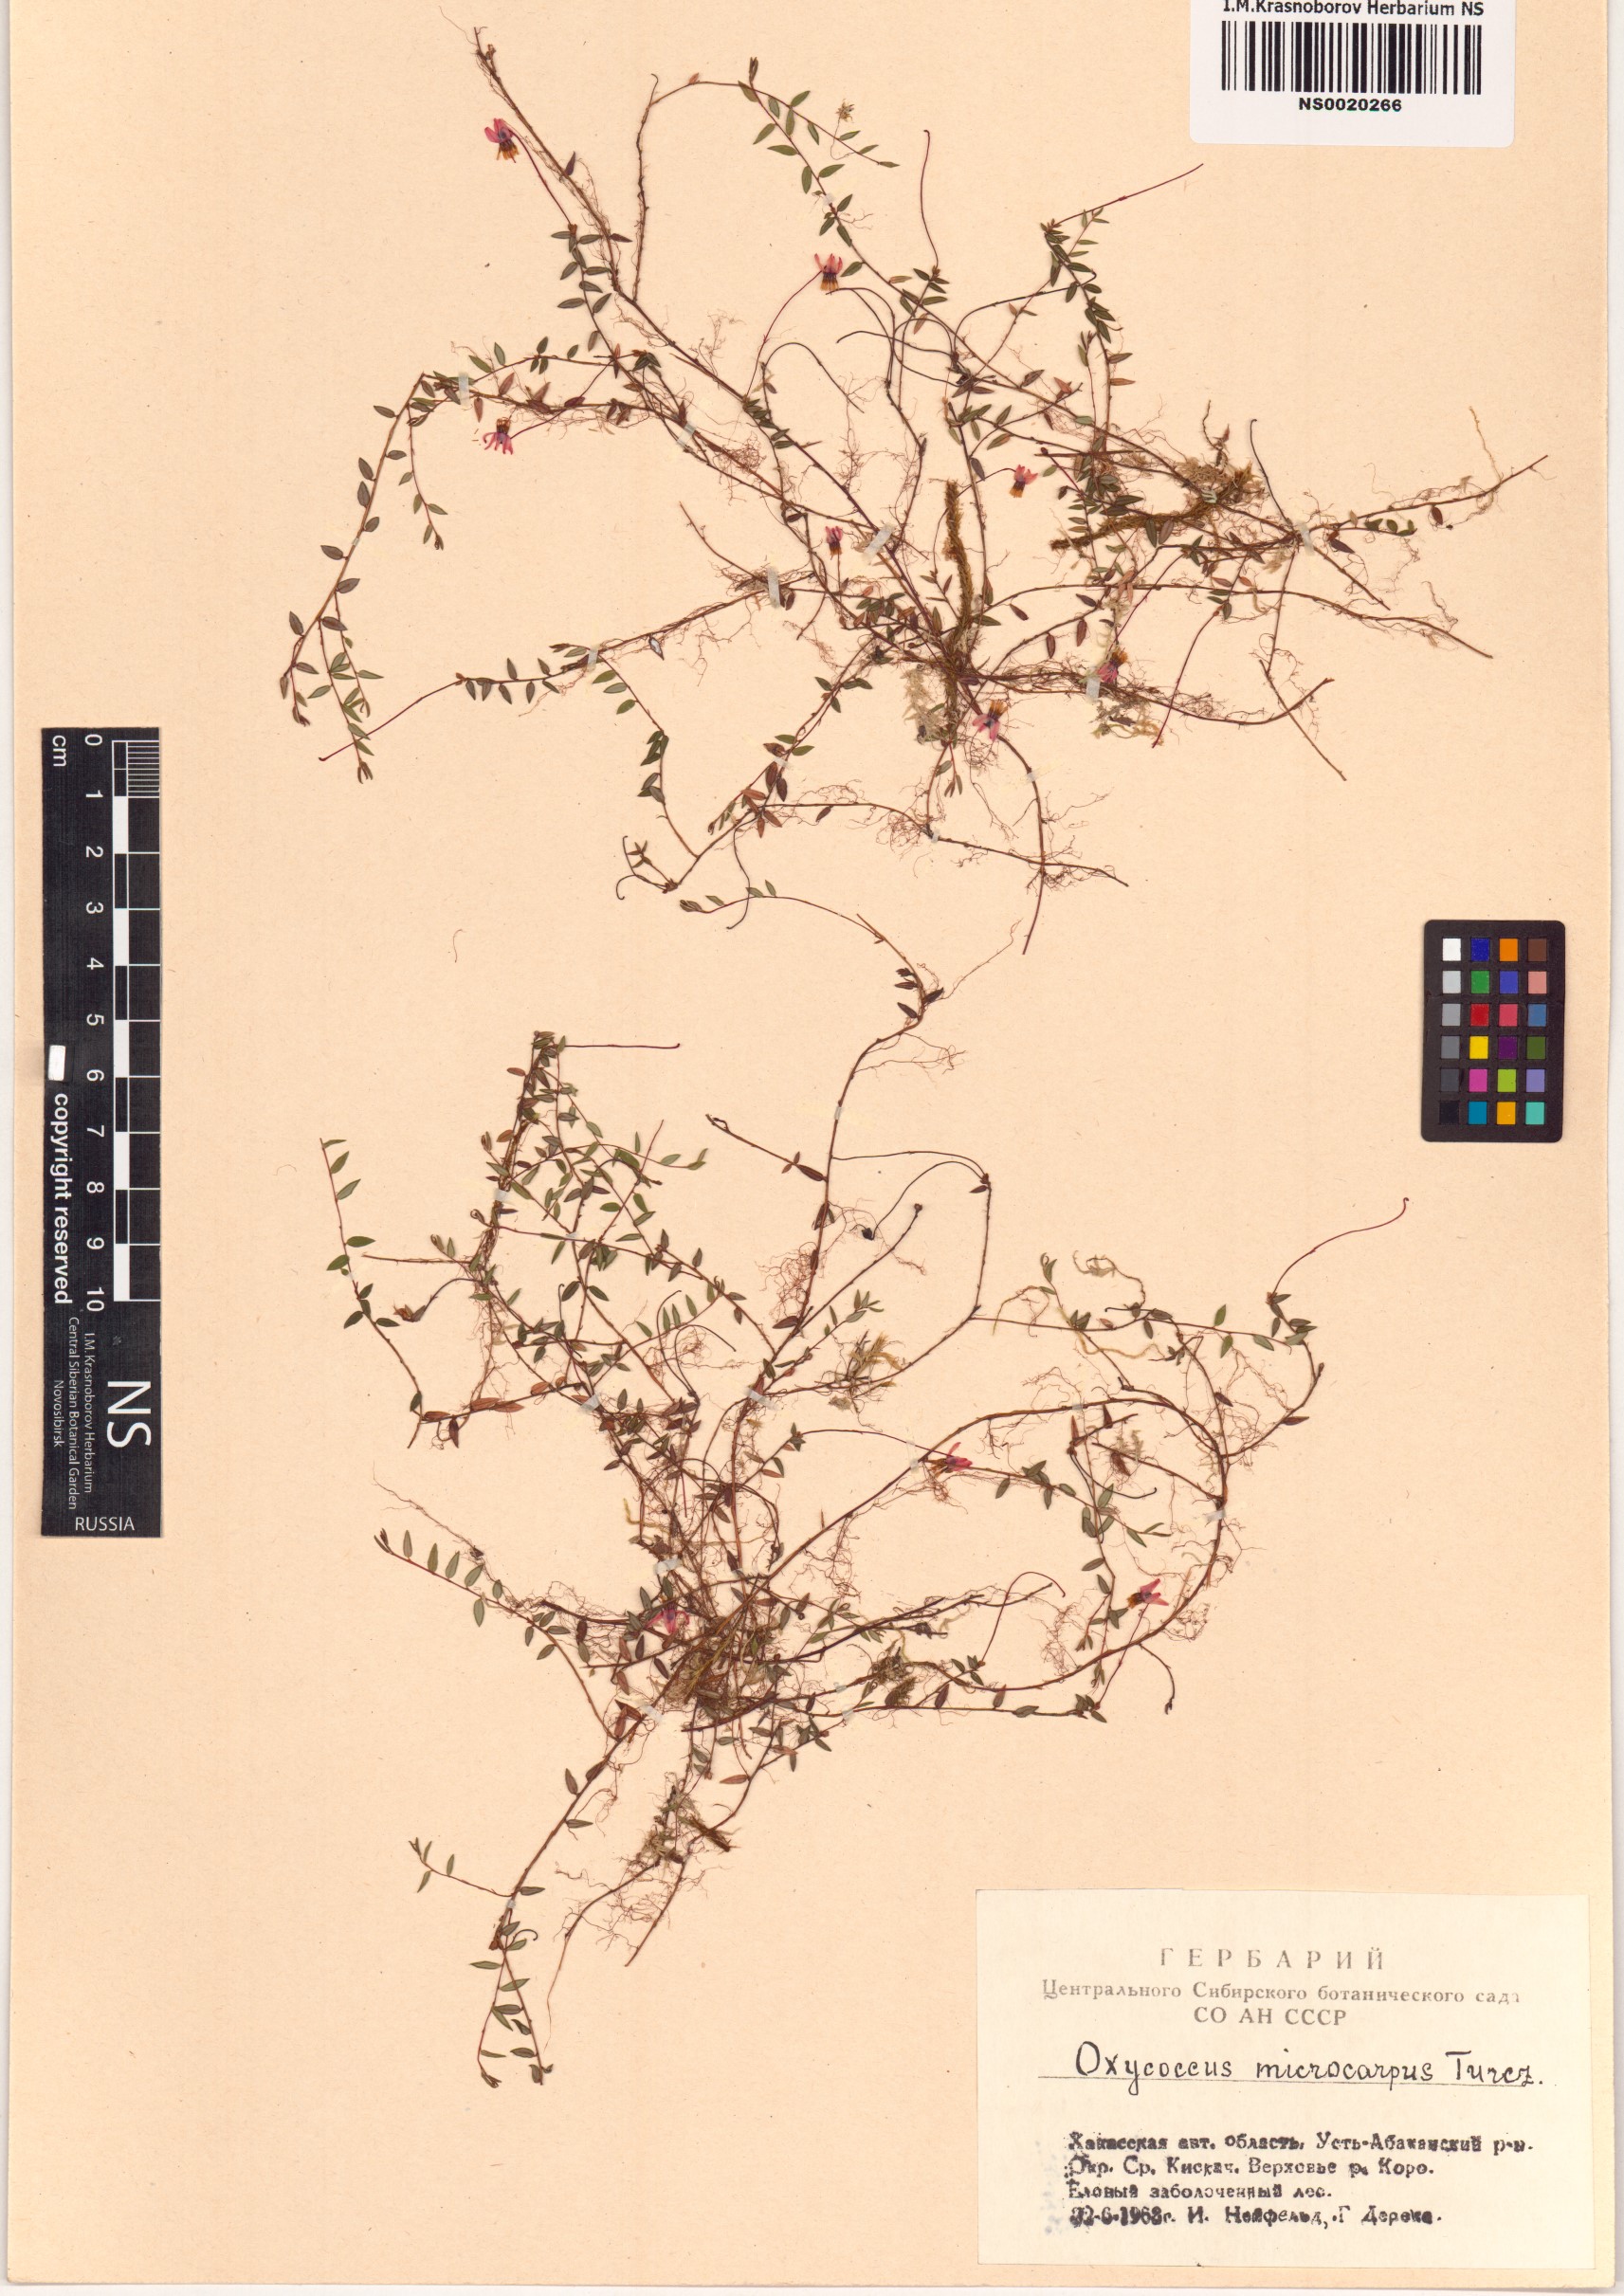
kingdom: Plantae
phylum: Tracheophyta
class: Magnoliopsida
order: Ericales
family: Ericaceae
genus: Vaccinium
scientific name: Vaccinium microcarpum
